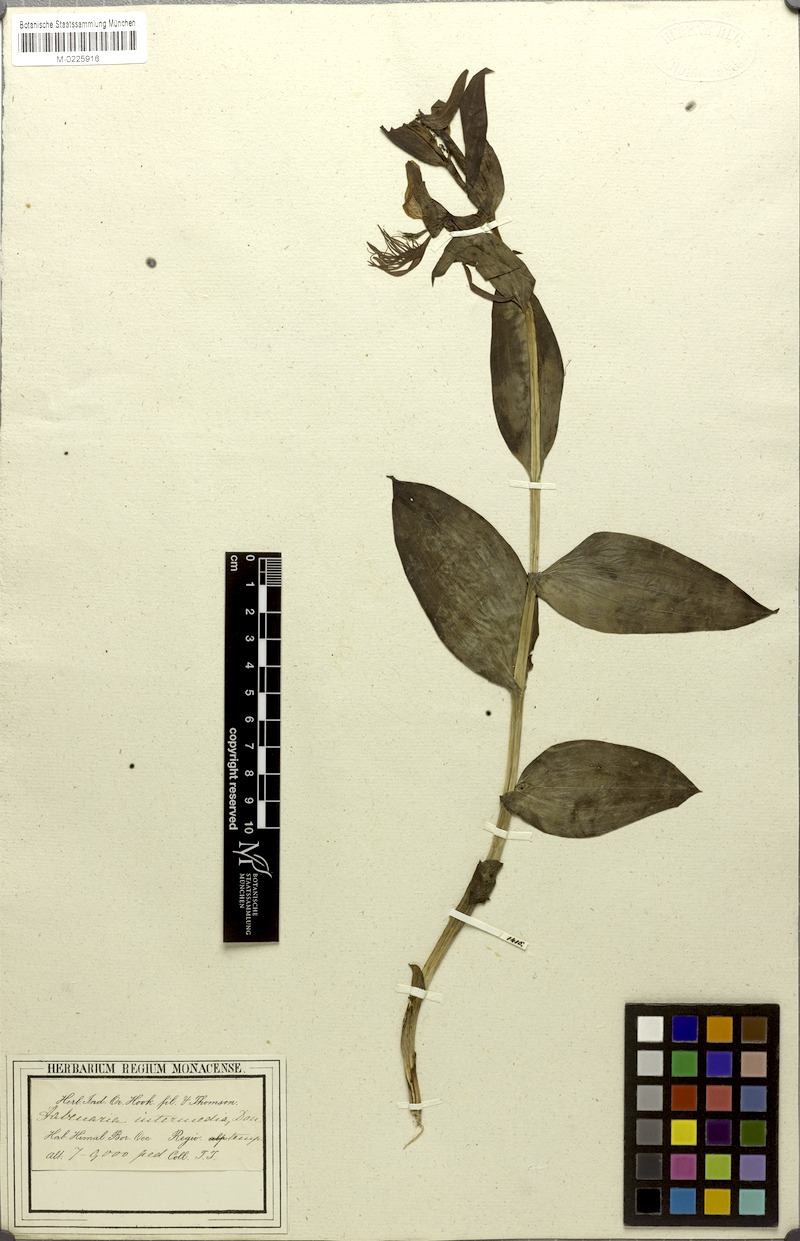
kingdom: Plantae
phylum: Tracheophyta
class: Liliopsida
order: Asparagales
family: Orchidaceae
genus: Habenaria
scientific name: Habenaria intermedia
